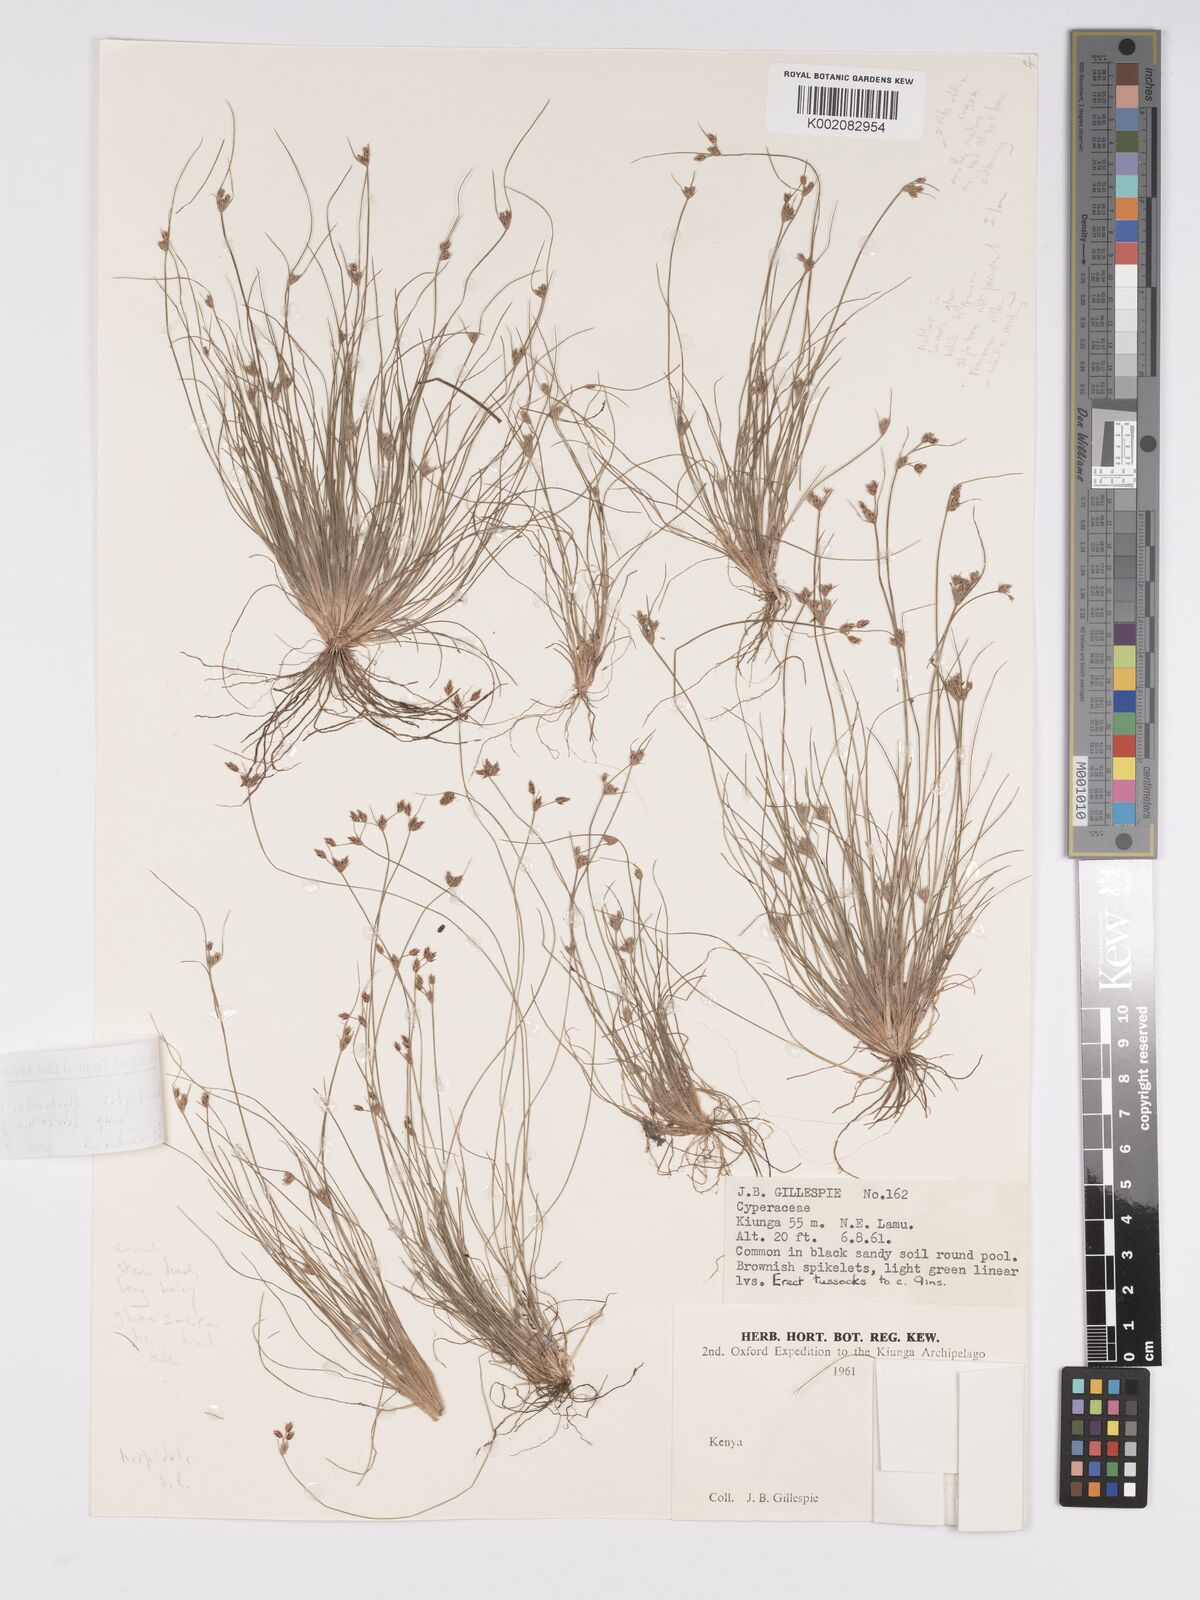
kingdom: Plantae
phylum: Tracheophyta
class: Liliopsida
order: Poales
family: Cyperaceae
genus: Bulbostylis
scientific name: Bulbostylis hispidula
